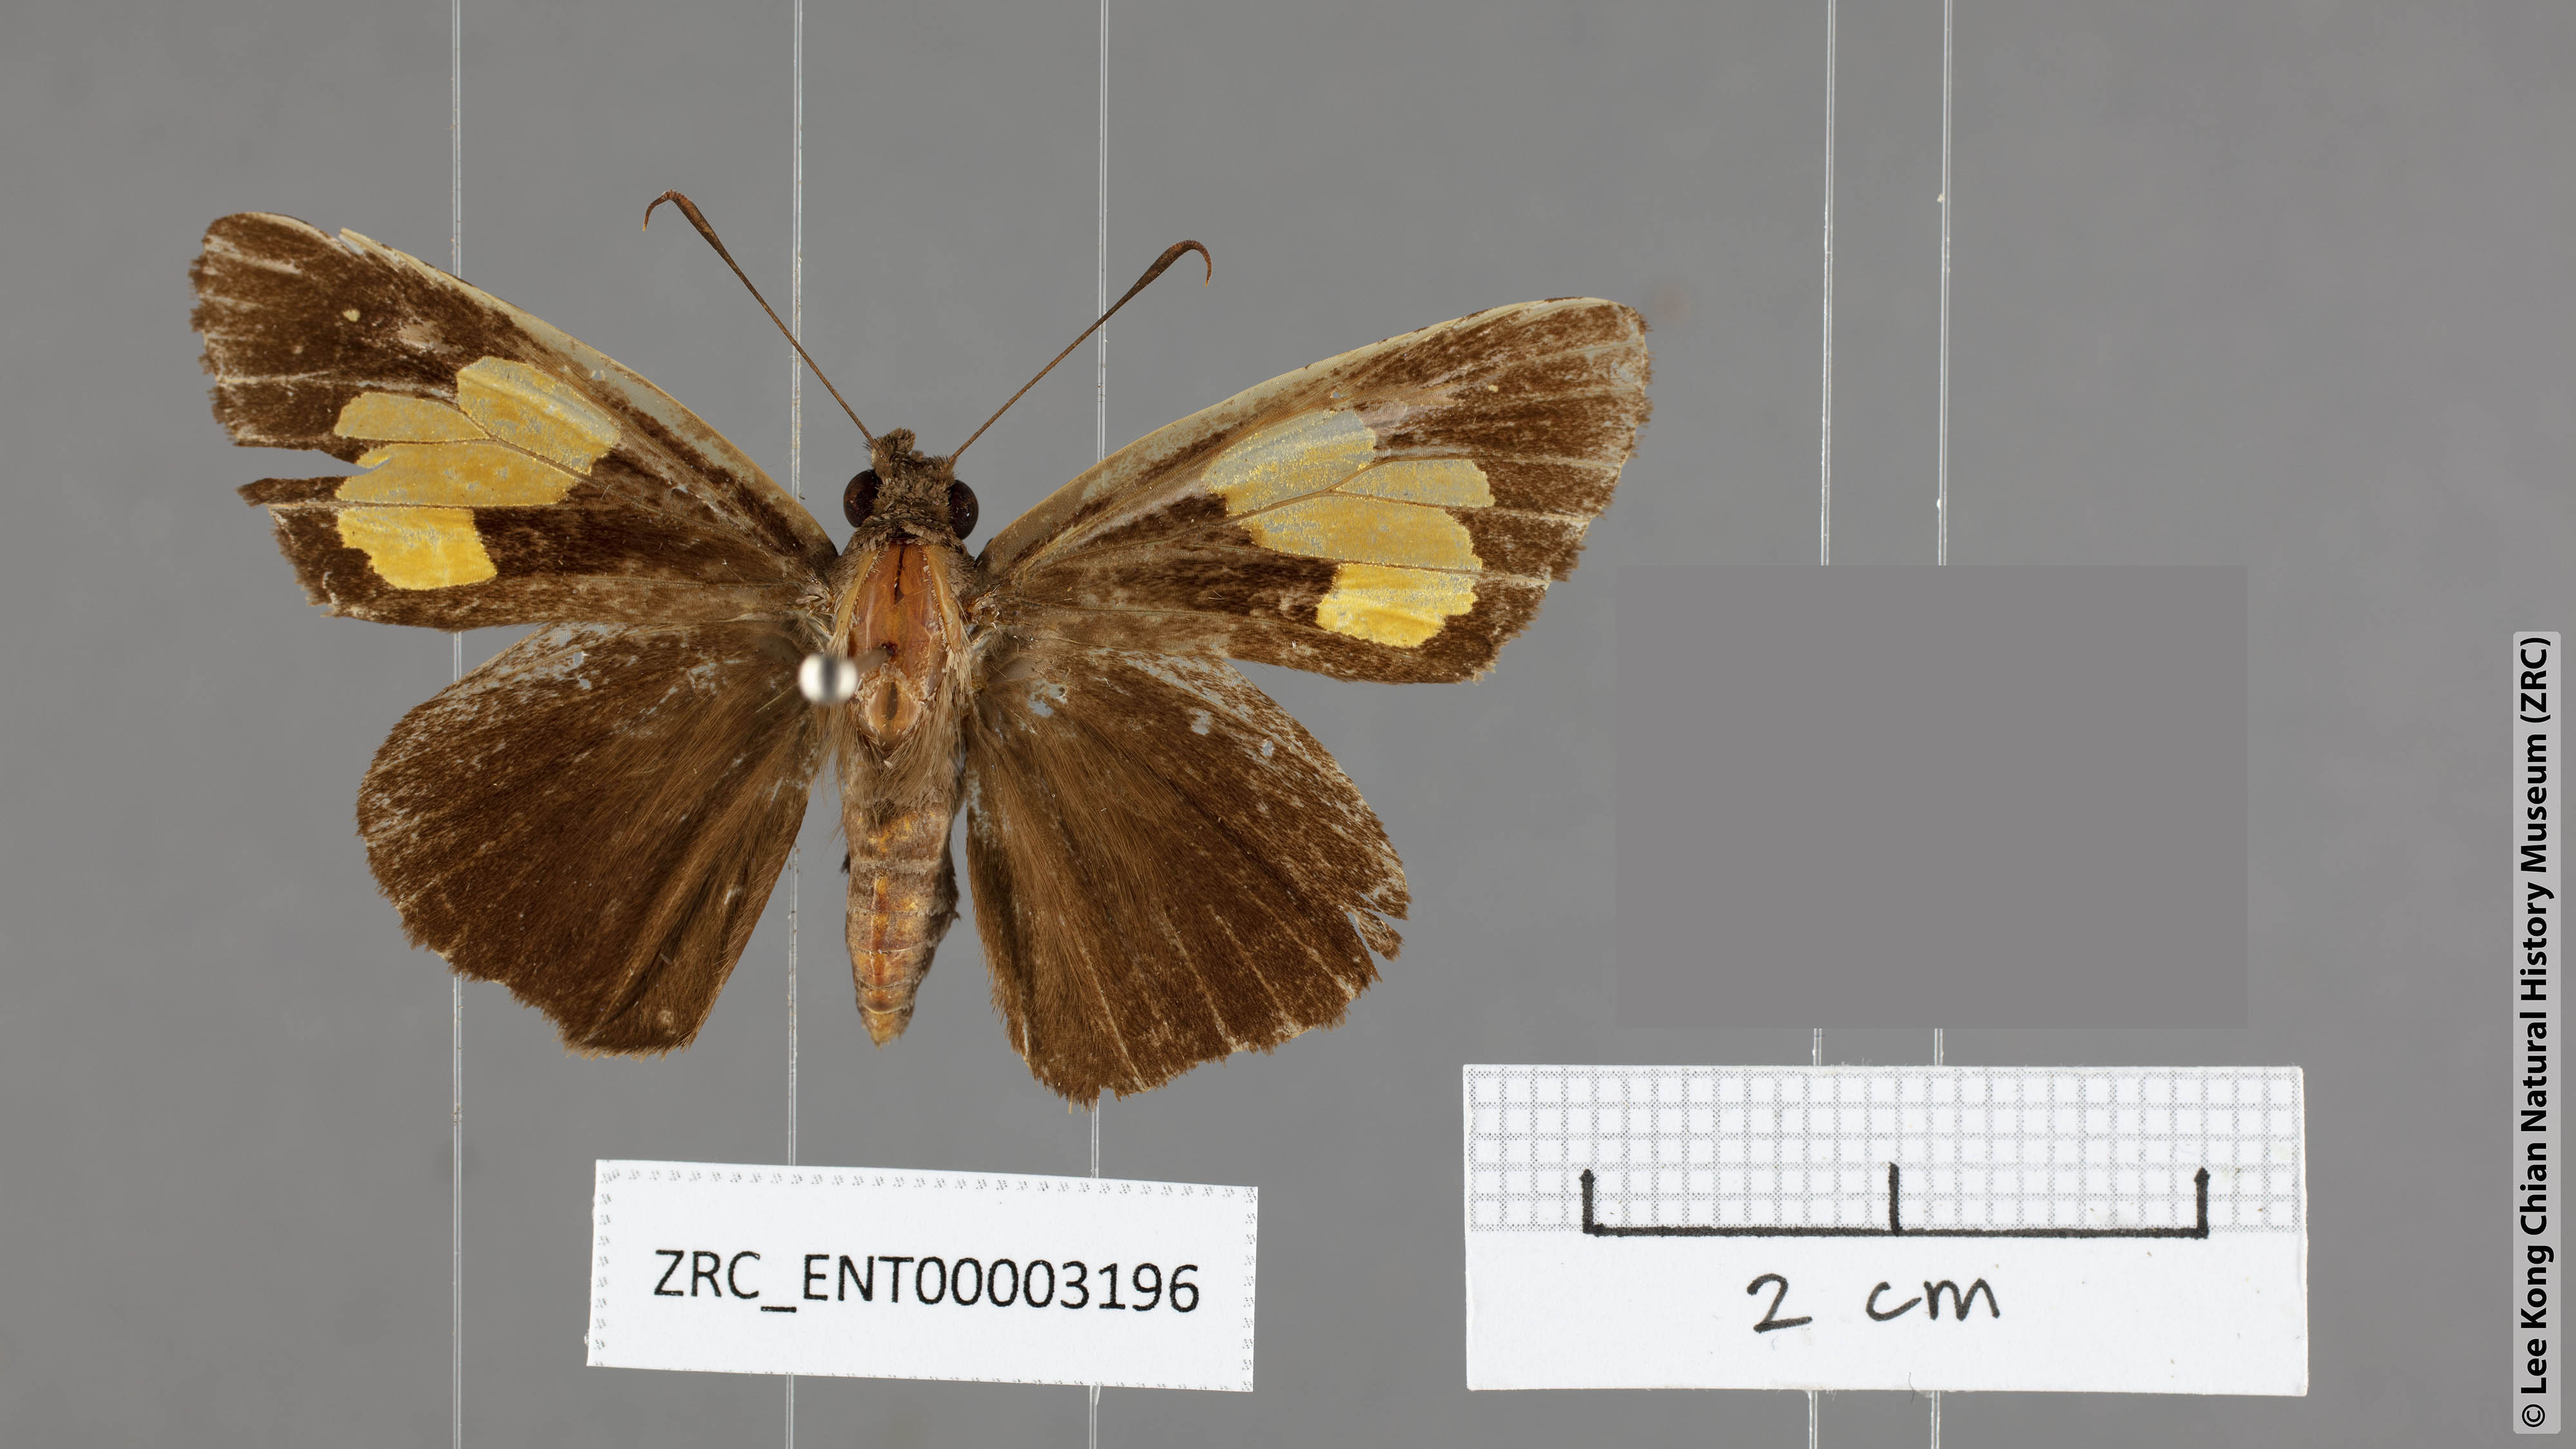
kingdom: Animalia
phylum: Arthropoda
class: Insecta
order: Lepidoptera
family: Hesperiidae
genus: Erionota
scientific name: Erionota
